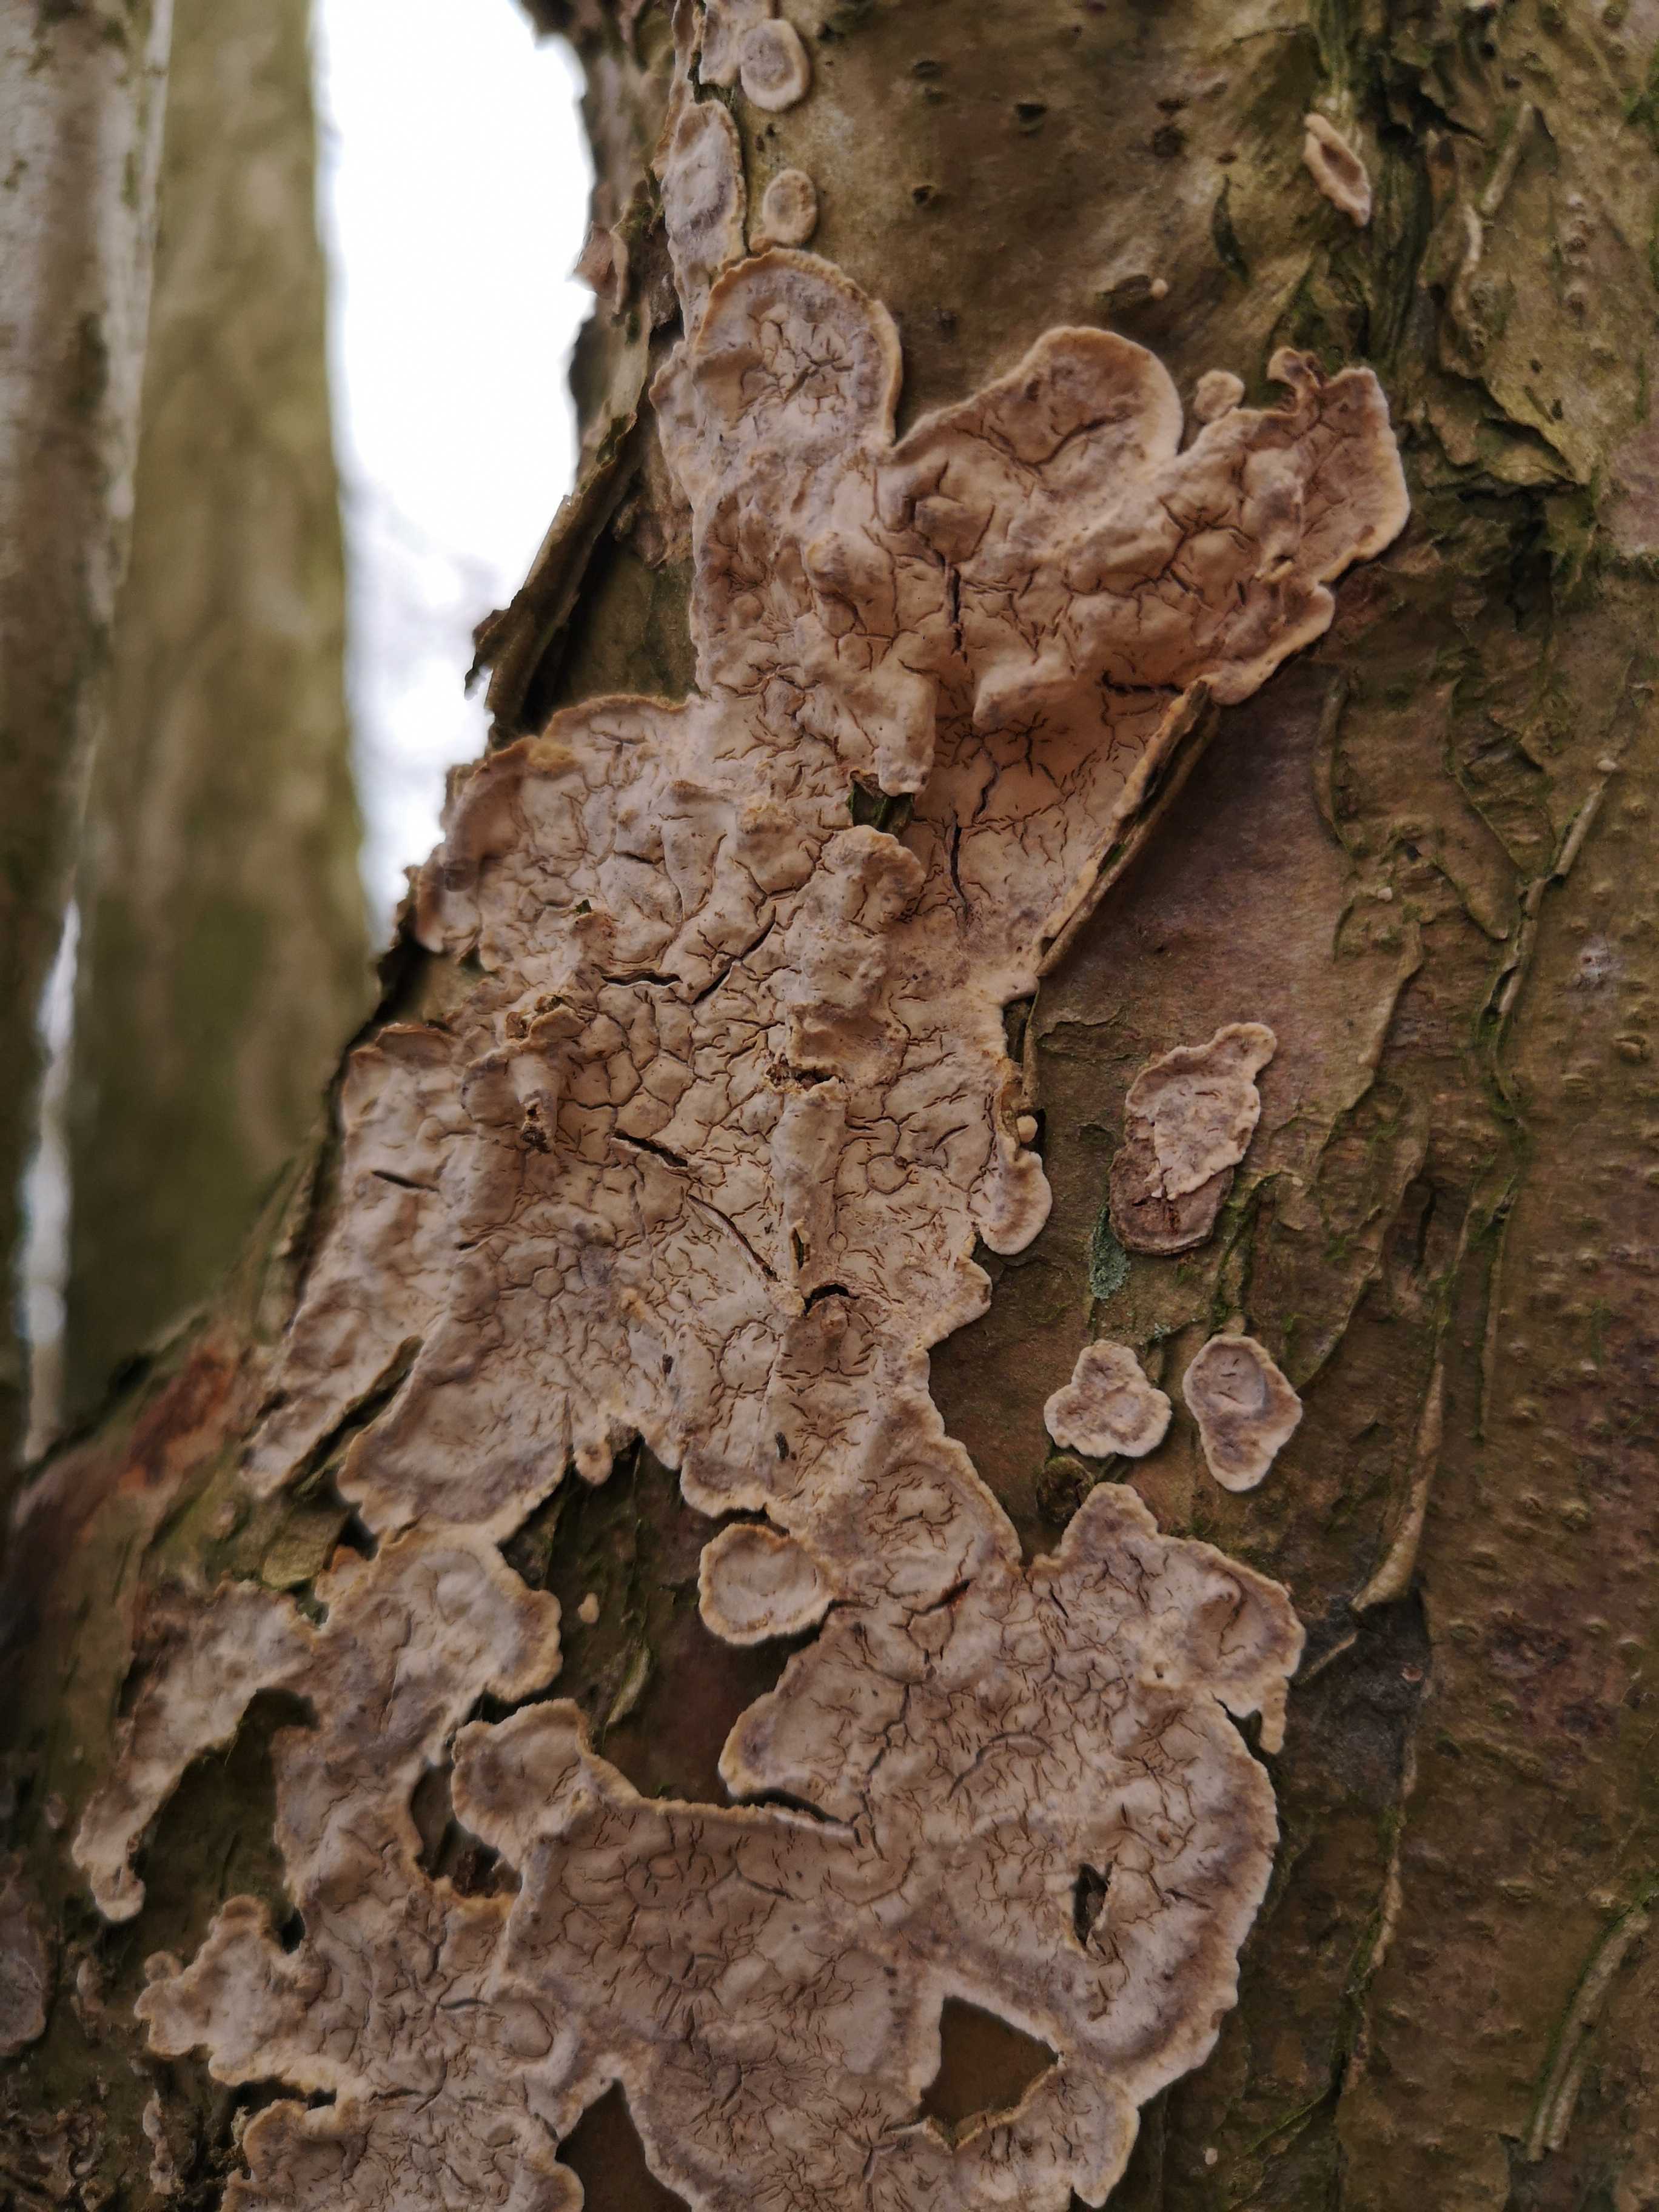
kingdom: Fungi
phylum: Basidiomycota
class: Agaricomycetes
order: Russulales
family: Stereaceae
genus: Stereum
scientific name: Stereum rugosum
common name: rynket lædersvamp
